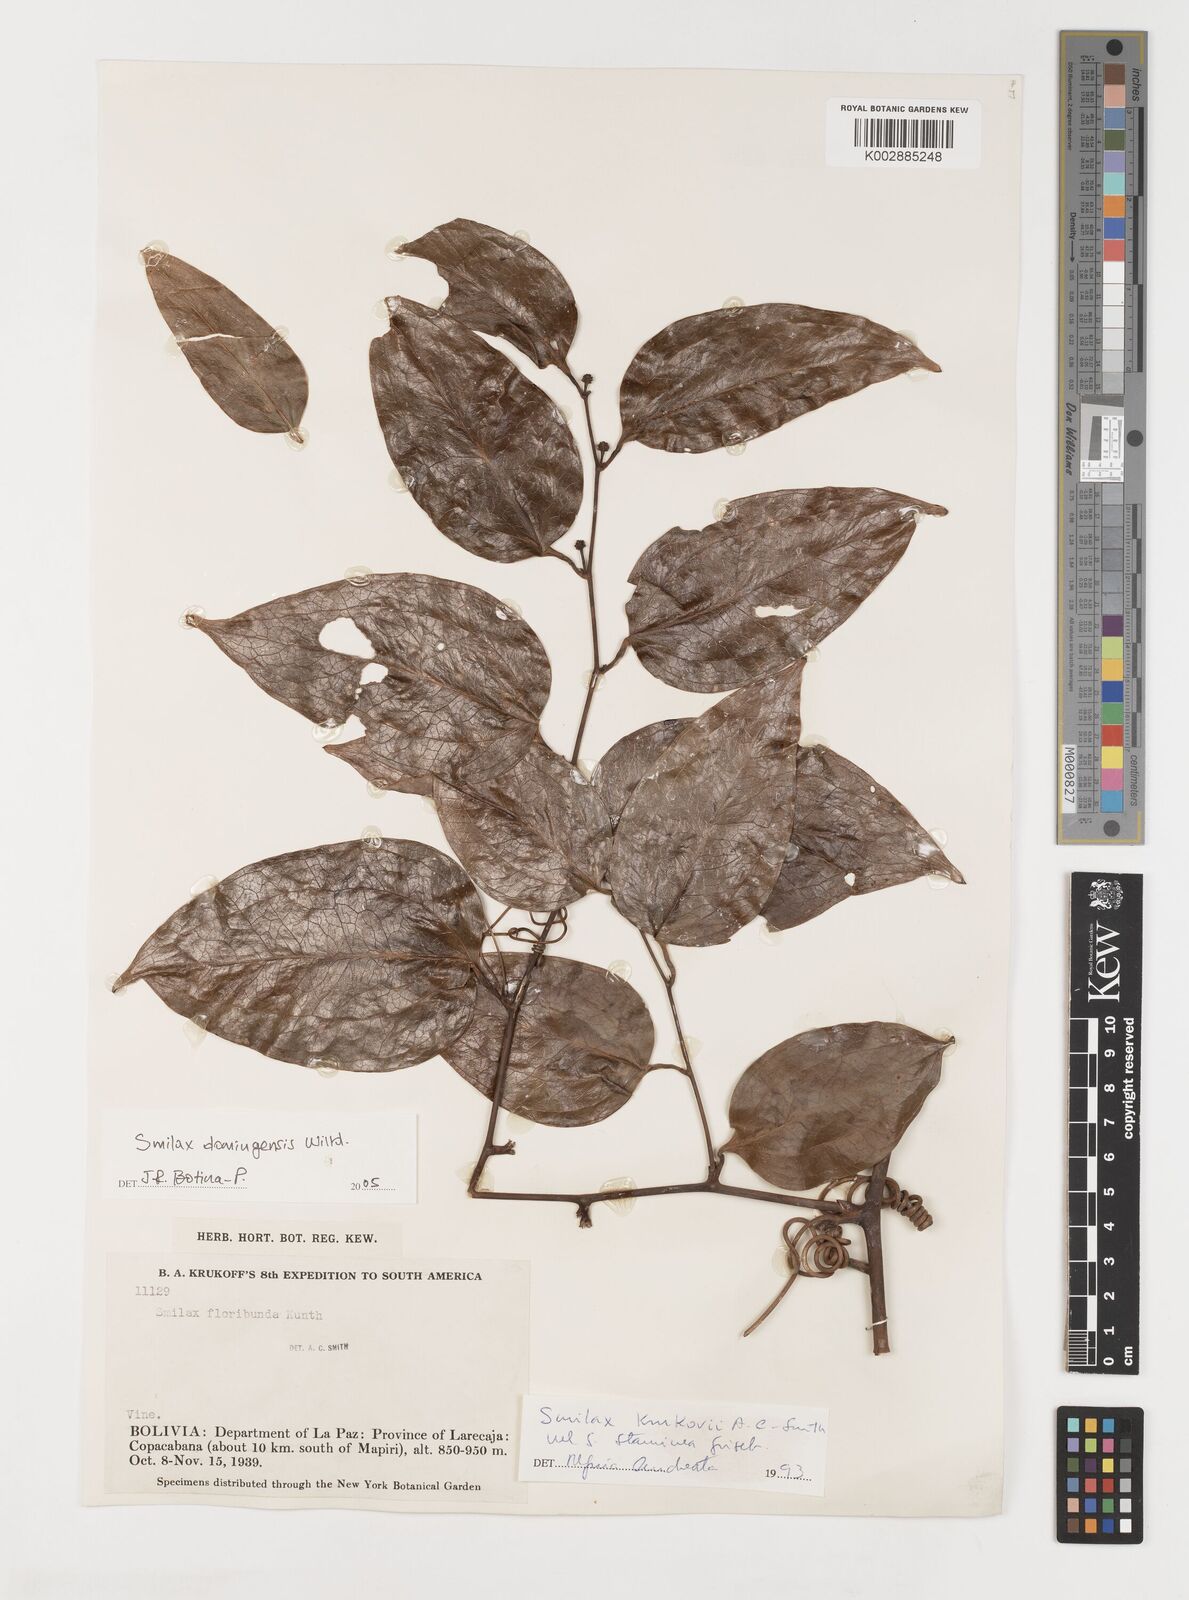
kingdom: Plantae
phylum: Tracheophyta
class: Liliopsida
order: Liliales
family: Smilacaceae
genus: Smilax
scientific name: Smilax domingensis
